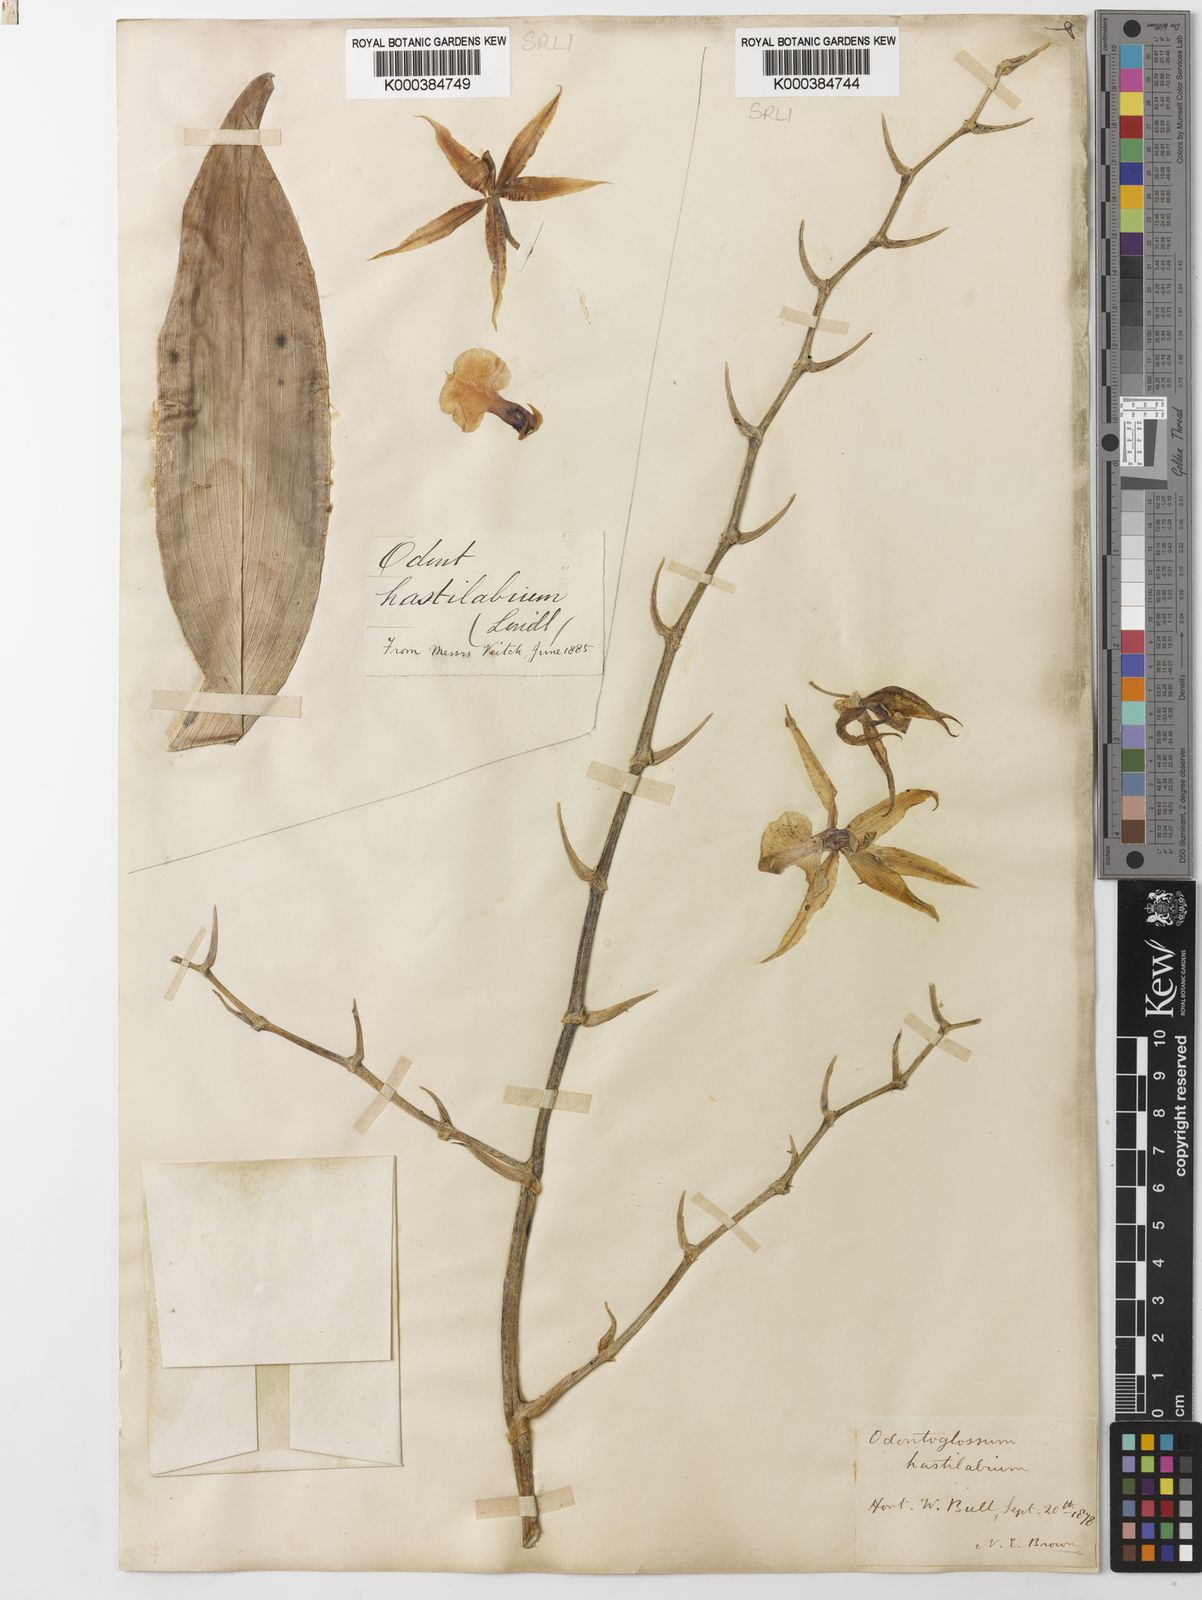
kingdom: Plantae
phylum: Tracheophyta
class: Liliopsida
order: Asparagales
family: Orchidaceae
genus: Oncidium
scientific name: Oncidium hastilabium
